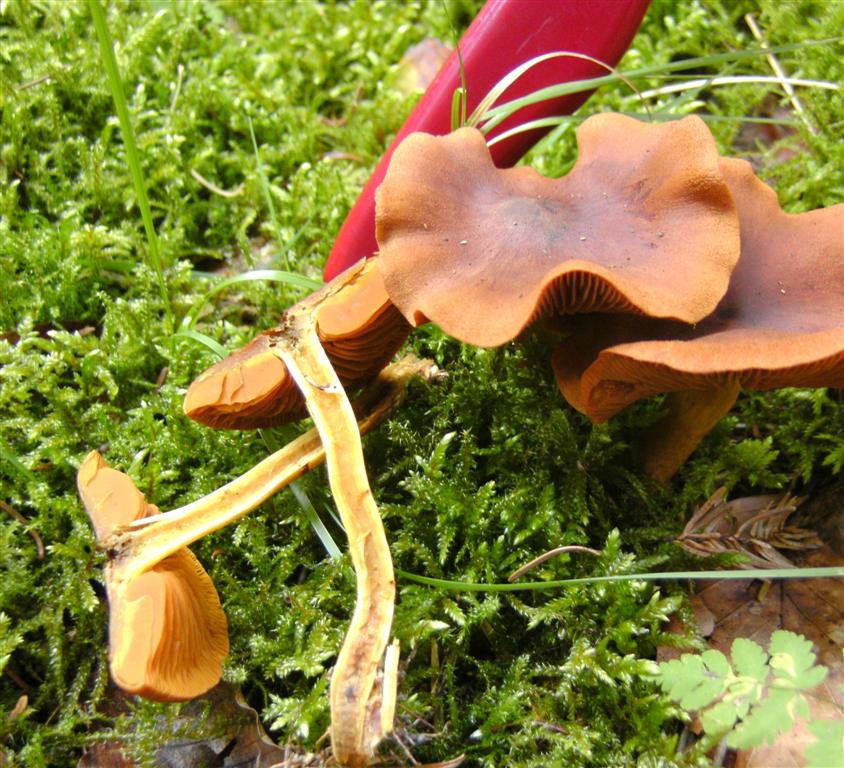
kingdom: Fungi
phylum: Basidiomycota
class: Agaricomycetes
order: Agaricales
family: Cortinariaceae
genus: Cortinarius
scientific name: Cortinarius cinnamomeus
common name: kanel-slørhat
